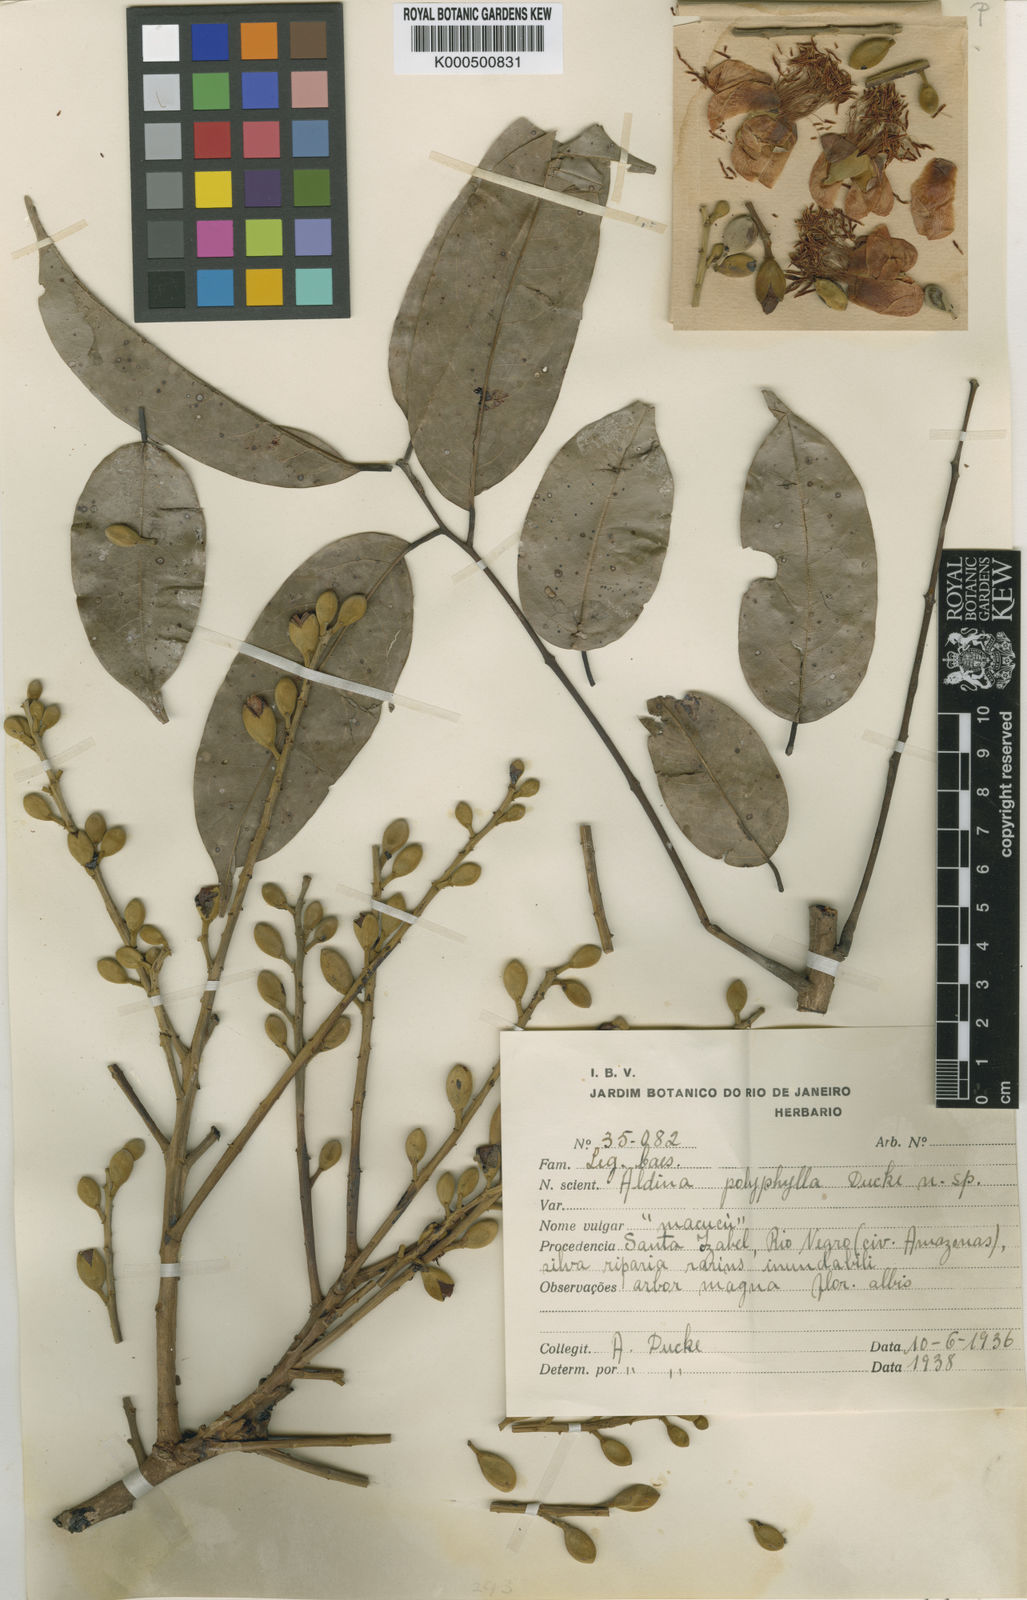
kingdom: Plantae
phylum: Tracheophyta
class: Magnoliopsida
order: Fabales
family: Fabaceae
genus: Aldina
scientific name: Aldina polyphylla
